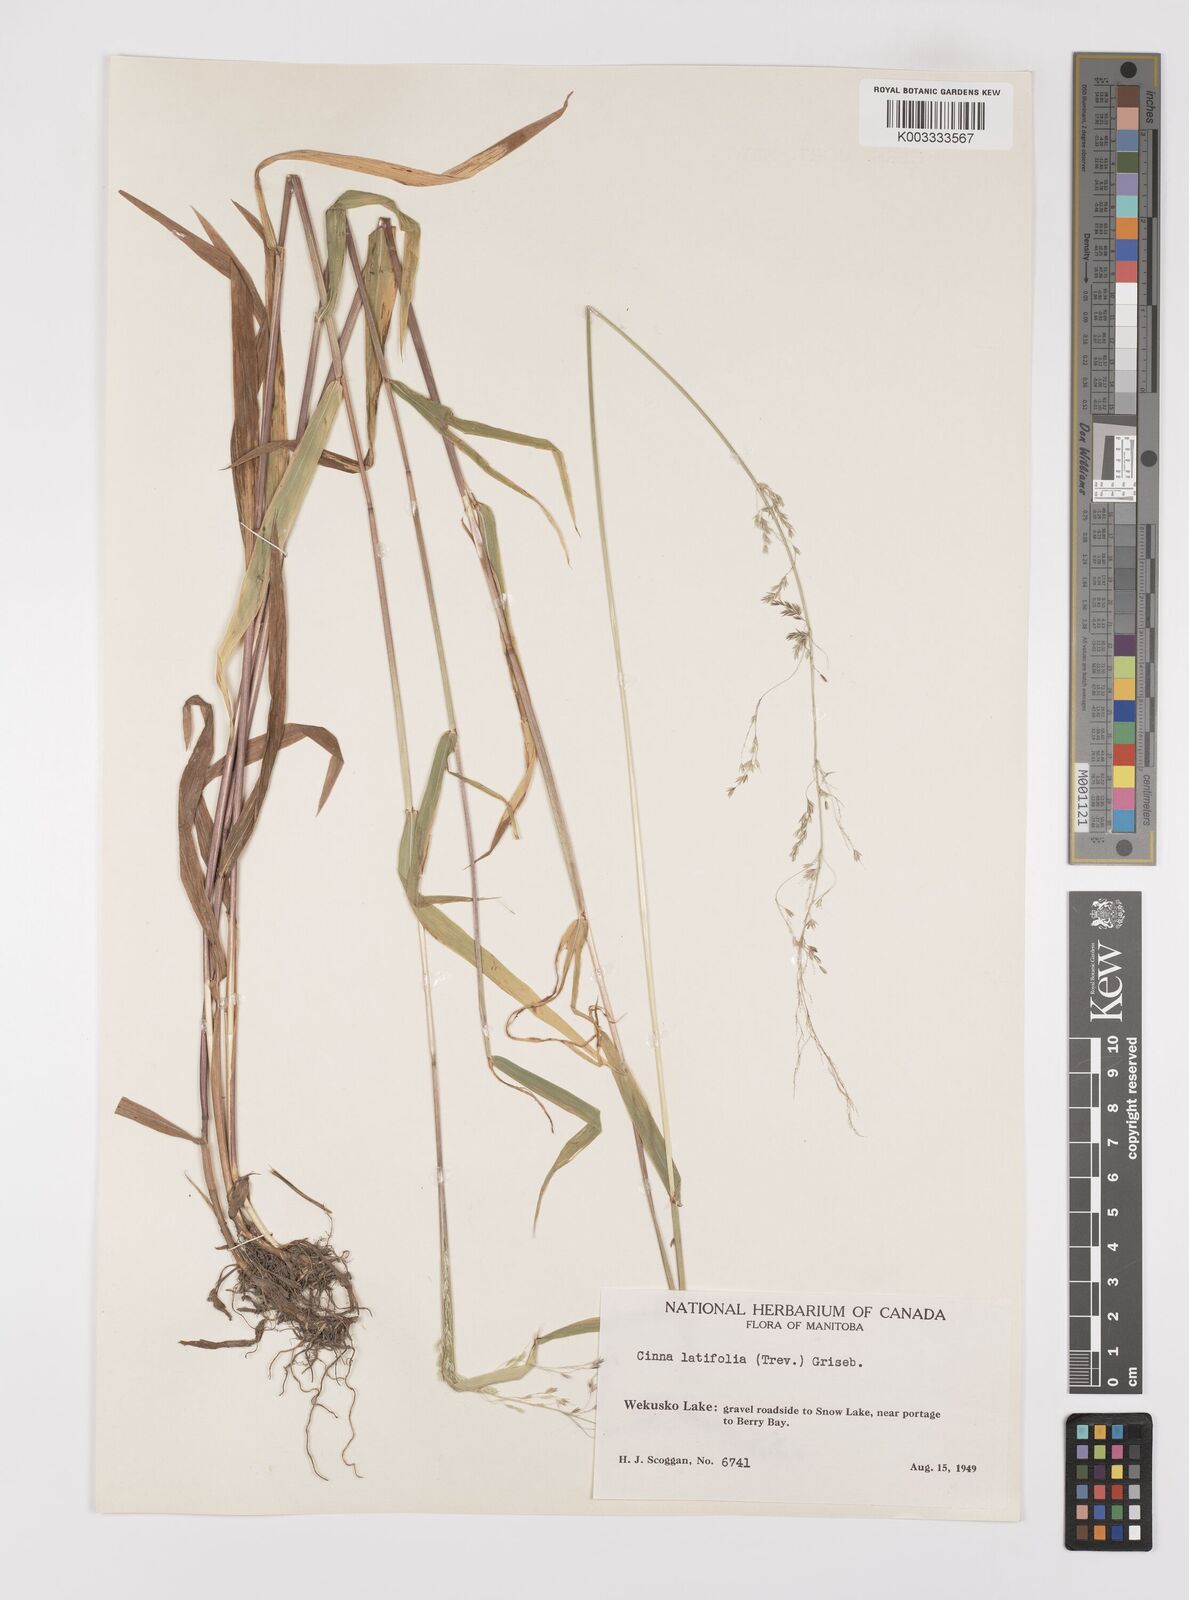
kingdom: Plantae
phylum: Tracheophyta
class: Liliopsida
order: Poales
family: Poaceae
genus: Cinna
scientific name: Cinna latifolia
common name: Drooping woodreed
